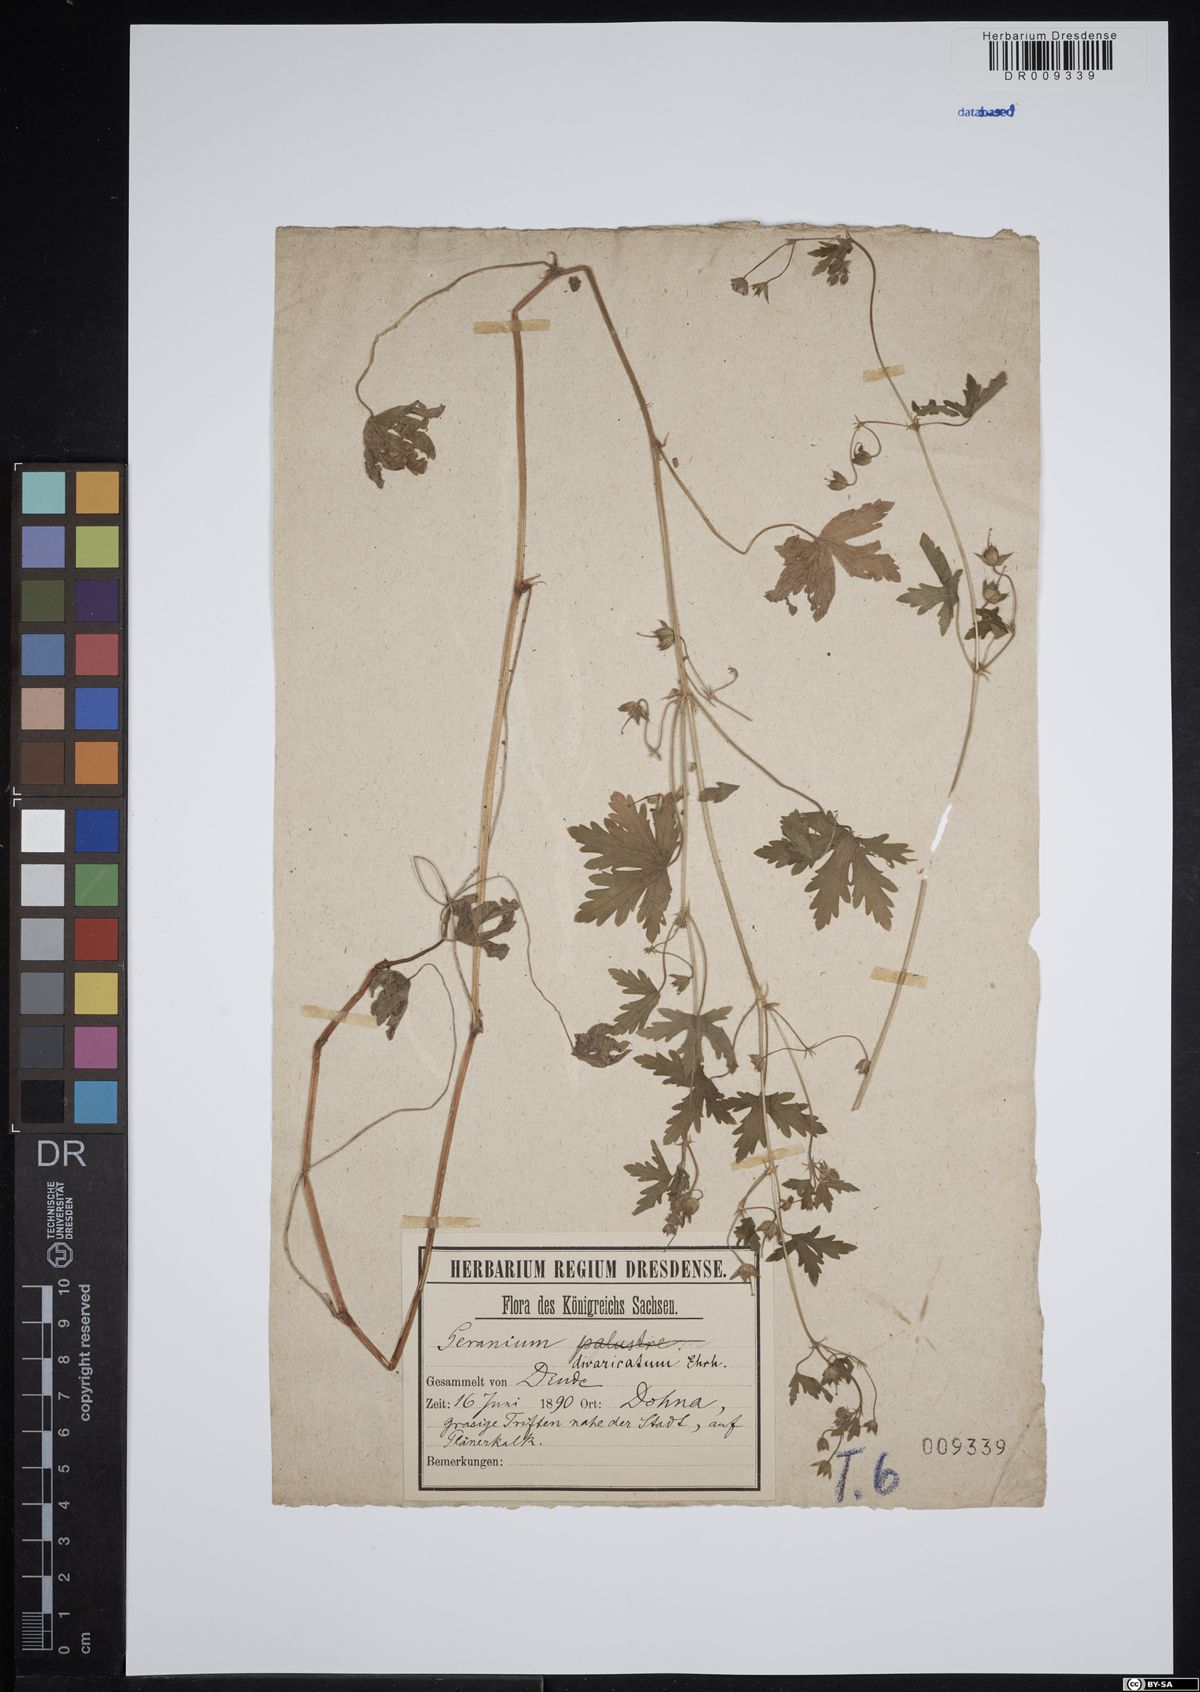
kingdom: Plantae
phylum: Tracheophyta
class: Magnoliopsida
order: Geraniales
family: Geraniaceae
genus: Geranium
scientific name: Geranium divaricatum
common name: Spreading crane's-bill
